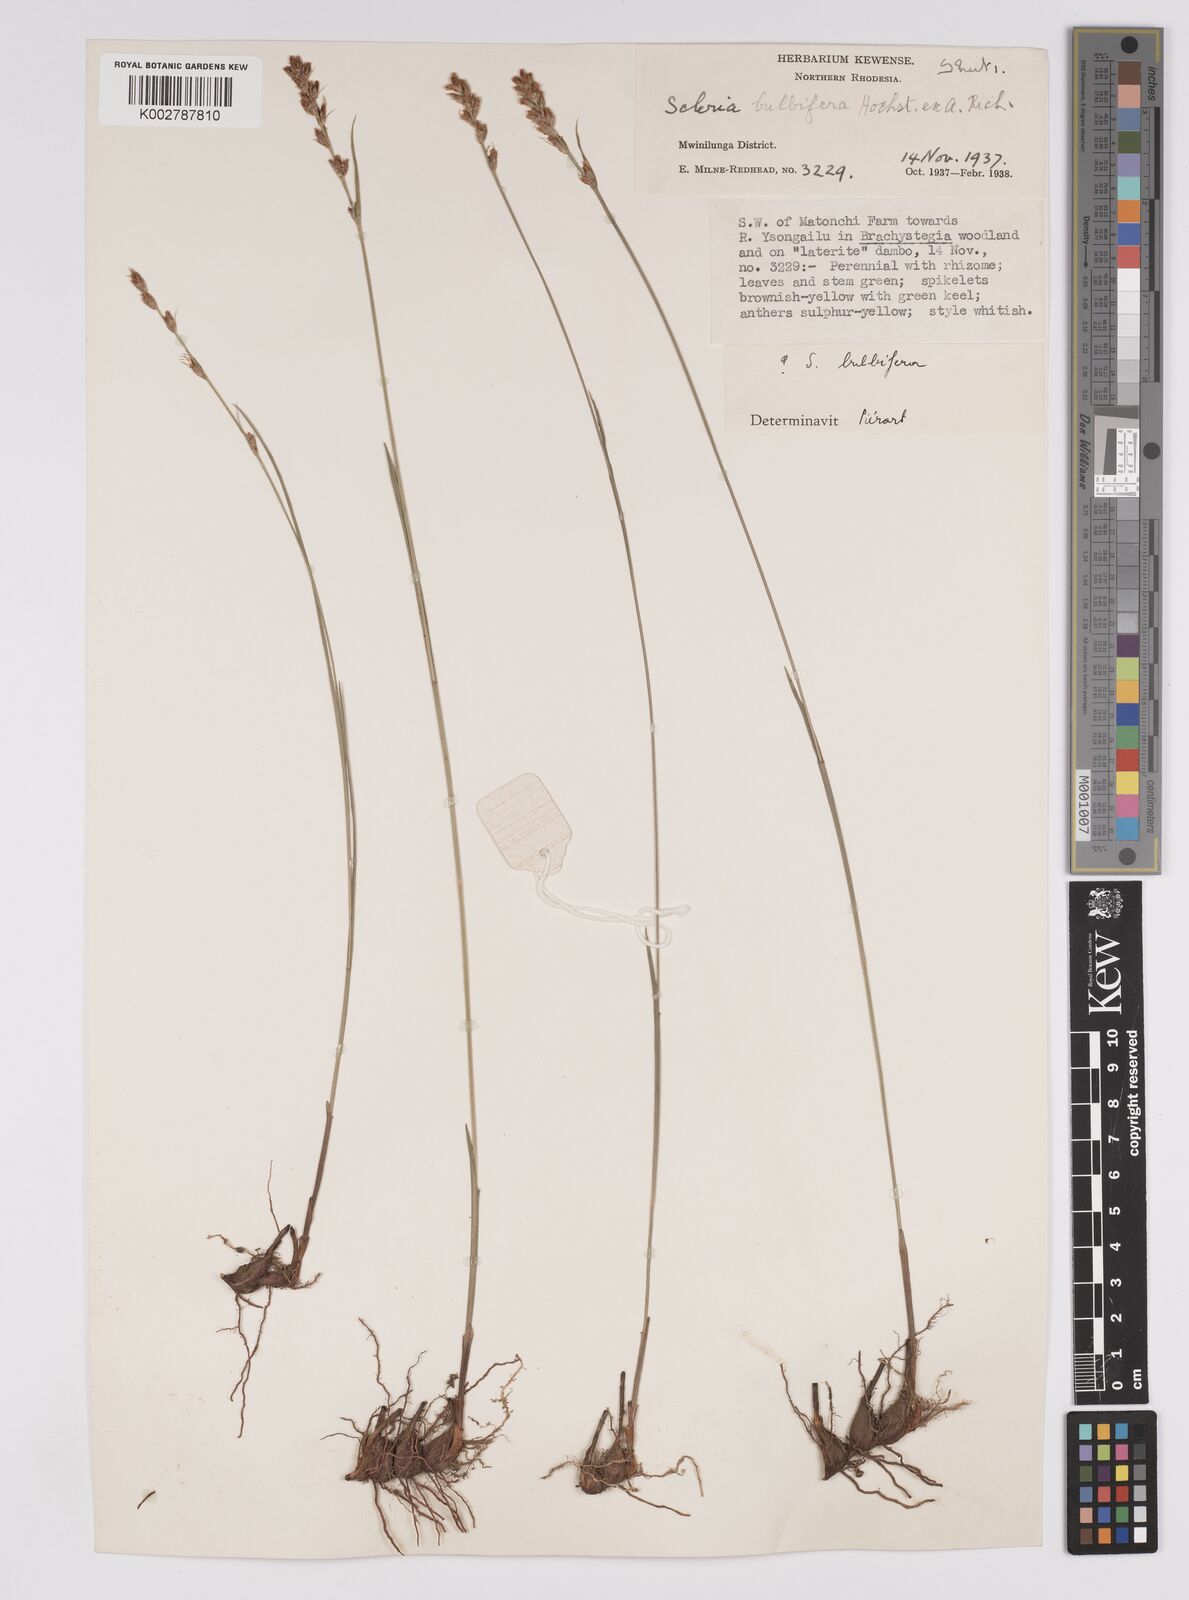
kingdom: Plantae
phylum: Tracheophyta
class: Liliopsida
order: Poales
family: Cyperaceae
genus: Scleria
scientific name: Scleria bulbifera
